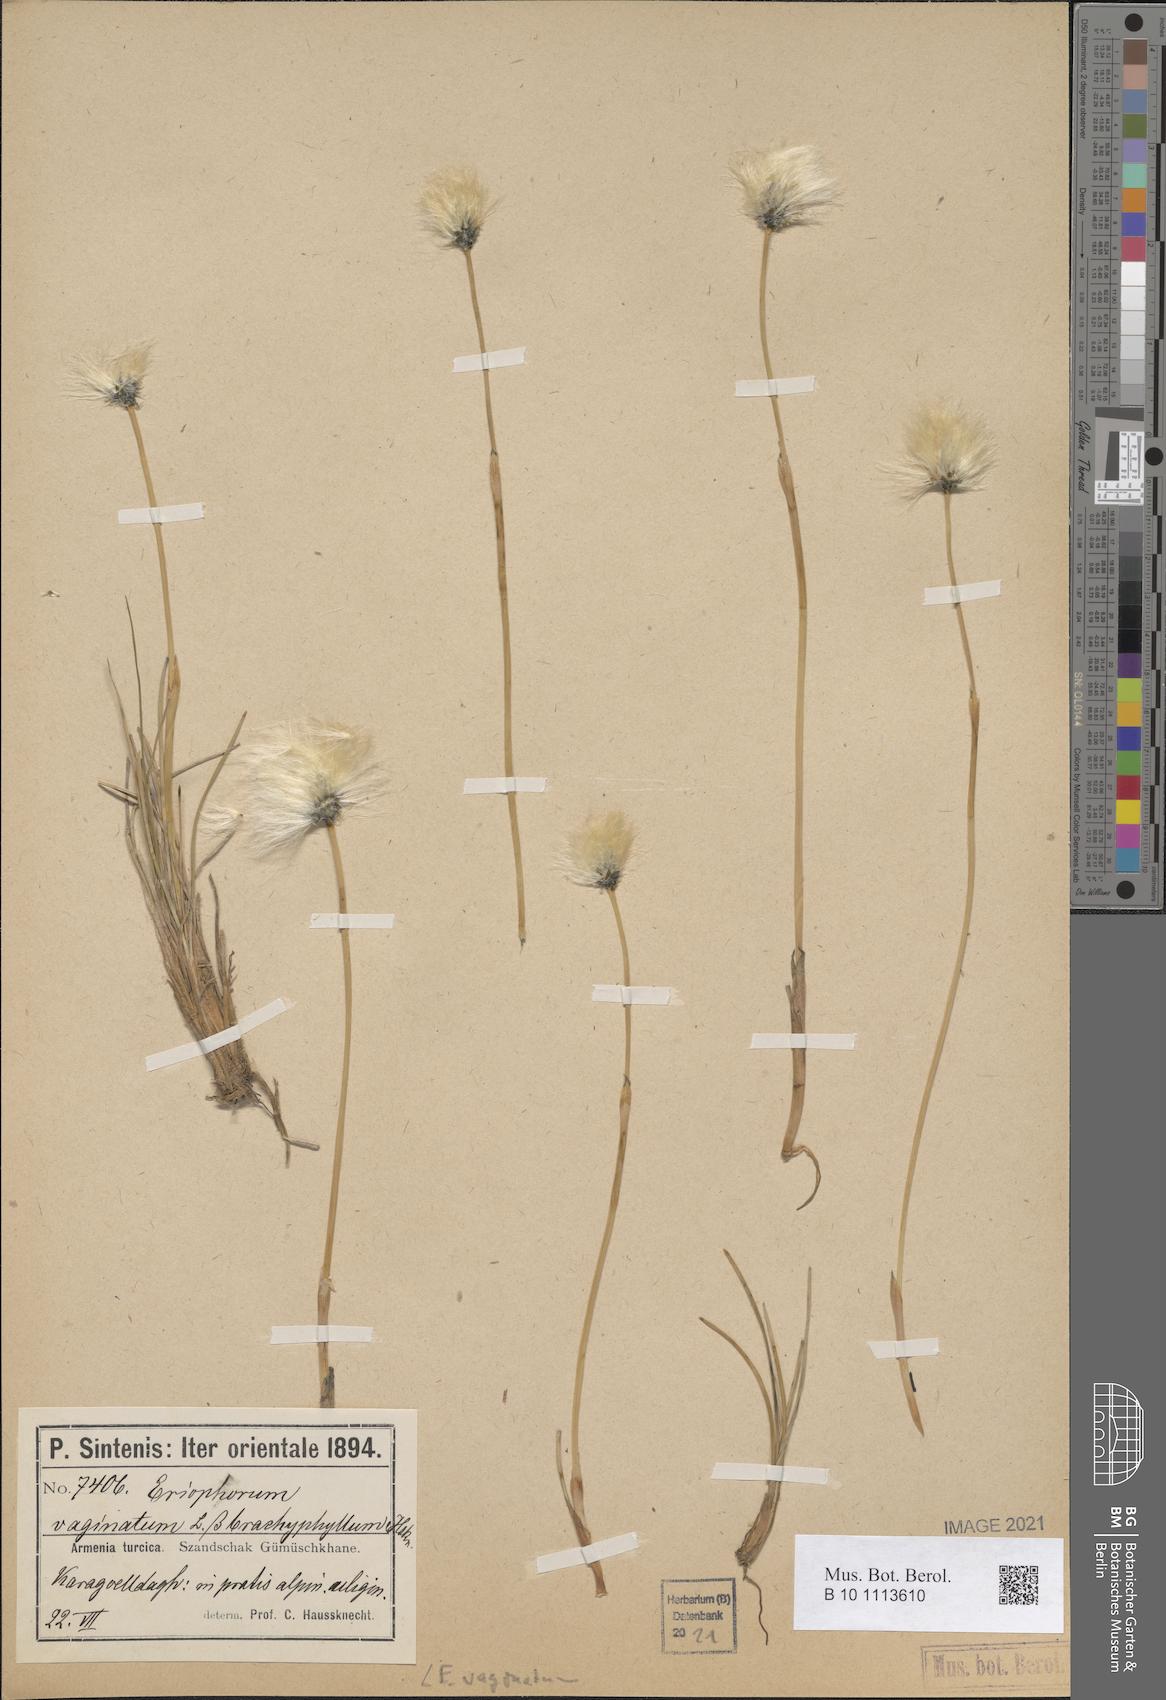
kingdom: Plantae
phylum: Tracheophyta
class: Liliopsida
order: Poales
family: Cyperaceae
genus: Eriophorum
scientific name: Eriophorum vaginatum
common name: Hare's-tail cottongrass
